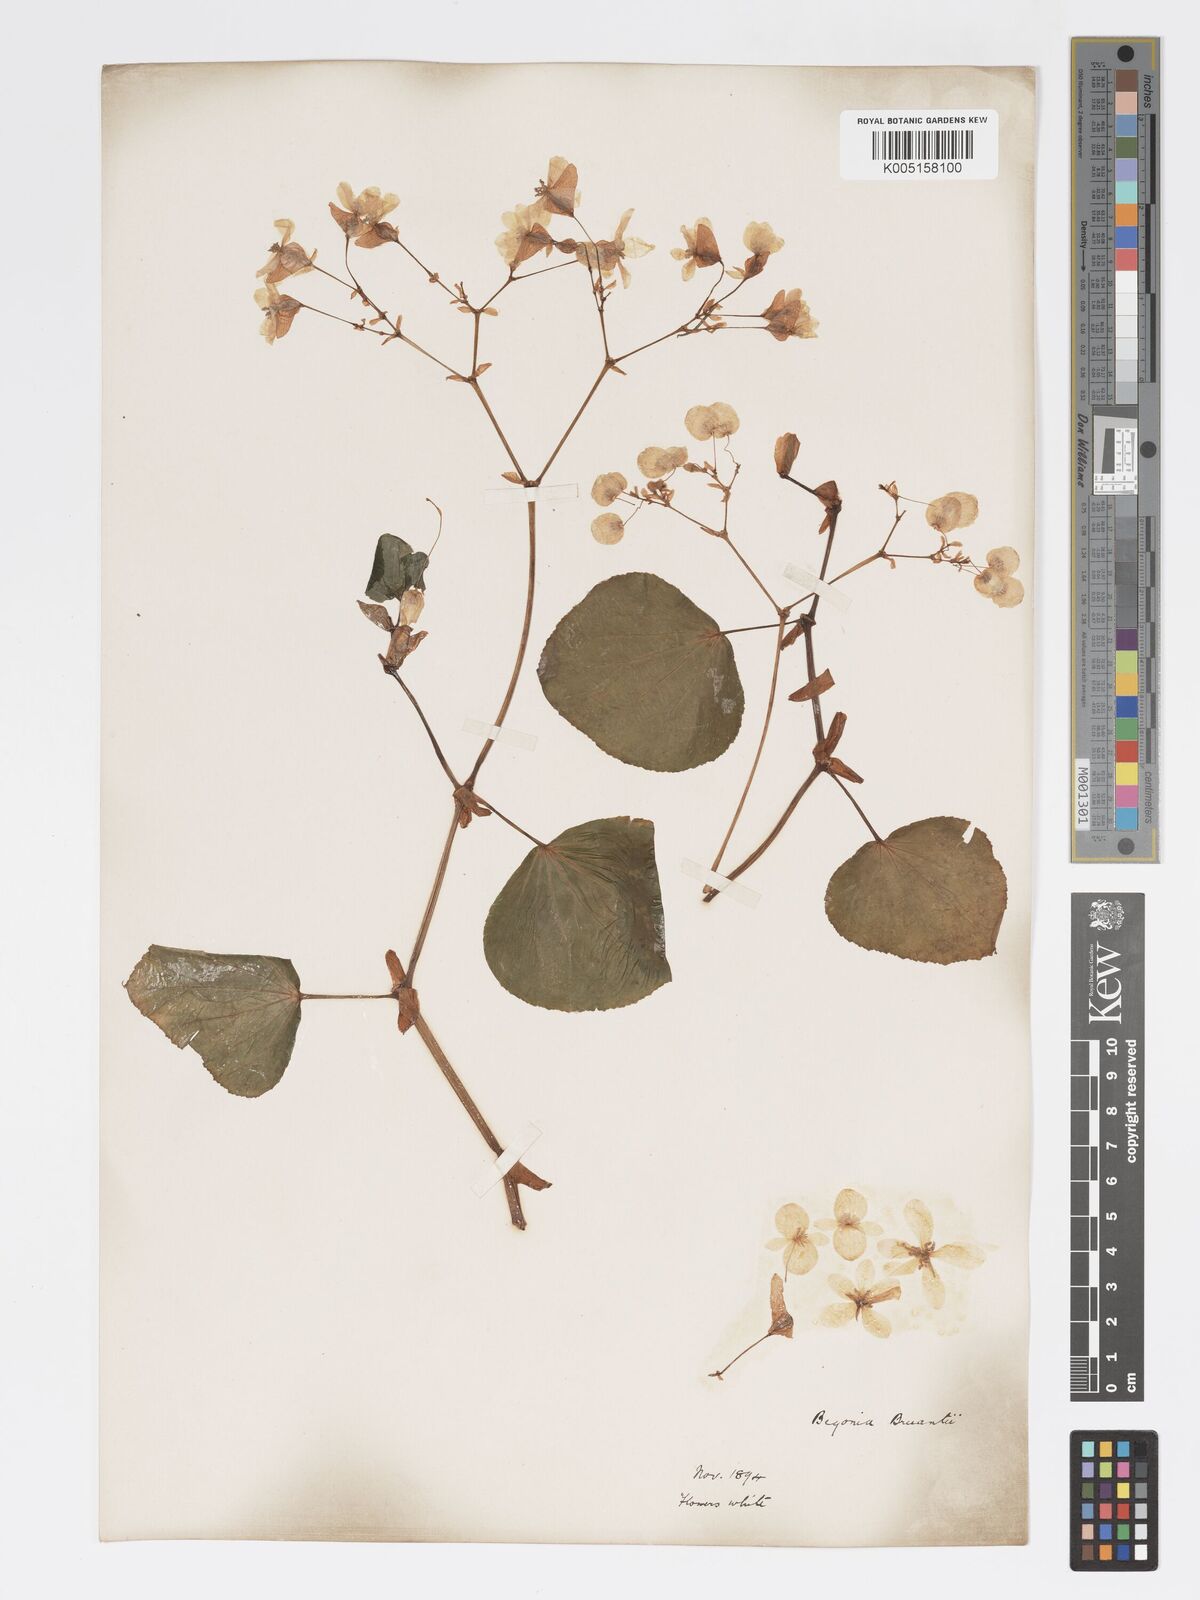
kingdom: Plantae
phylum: Tracheophyta
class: Magnoliopsida
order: Cucurbitales
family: Begoniaceae
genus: Begonia
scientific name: Begonia
